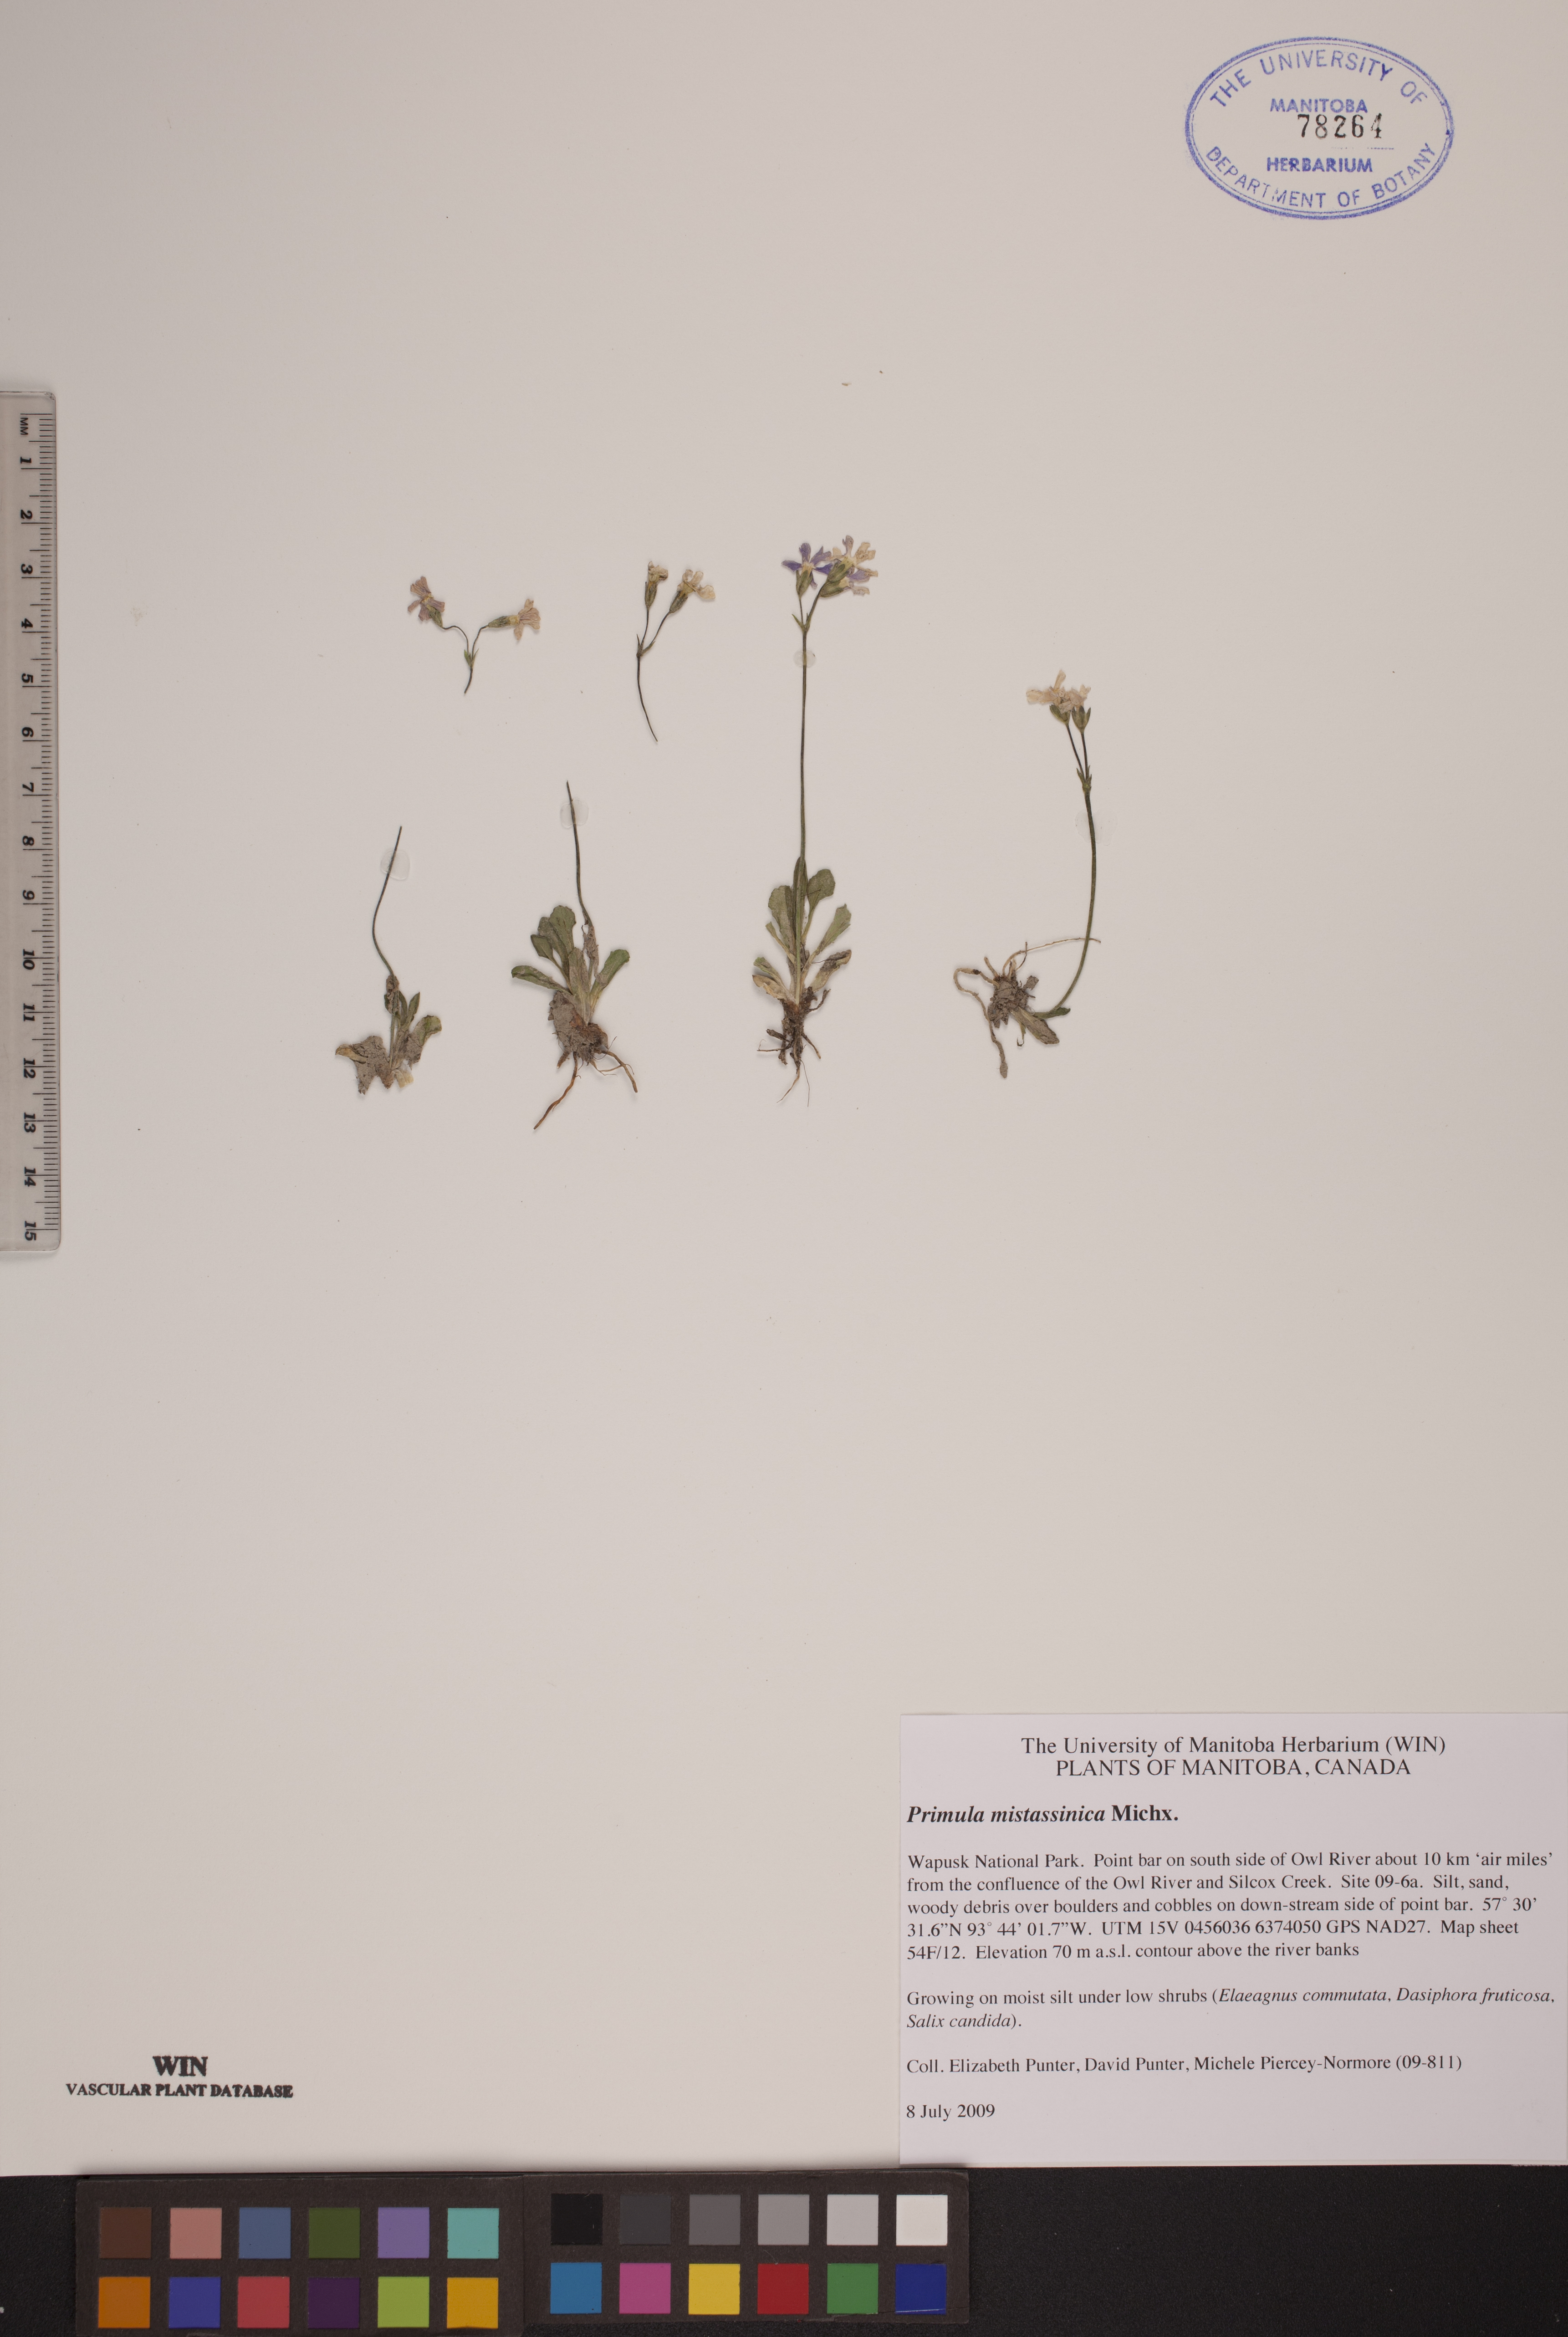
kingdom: Plantae
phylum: Tracheophyta
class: Magnoliopsida
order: Ericales
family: Primulaceae
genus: Primula
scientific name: Primula mistassinica
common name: Bird's-eye primrose
